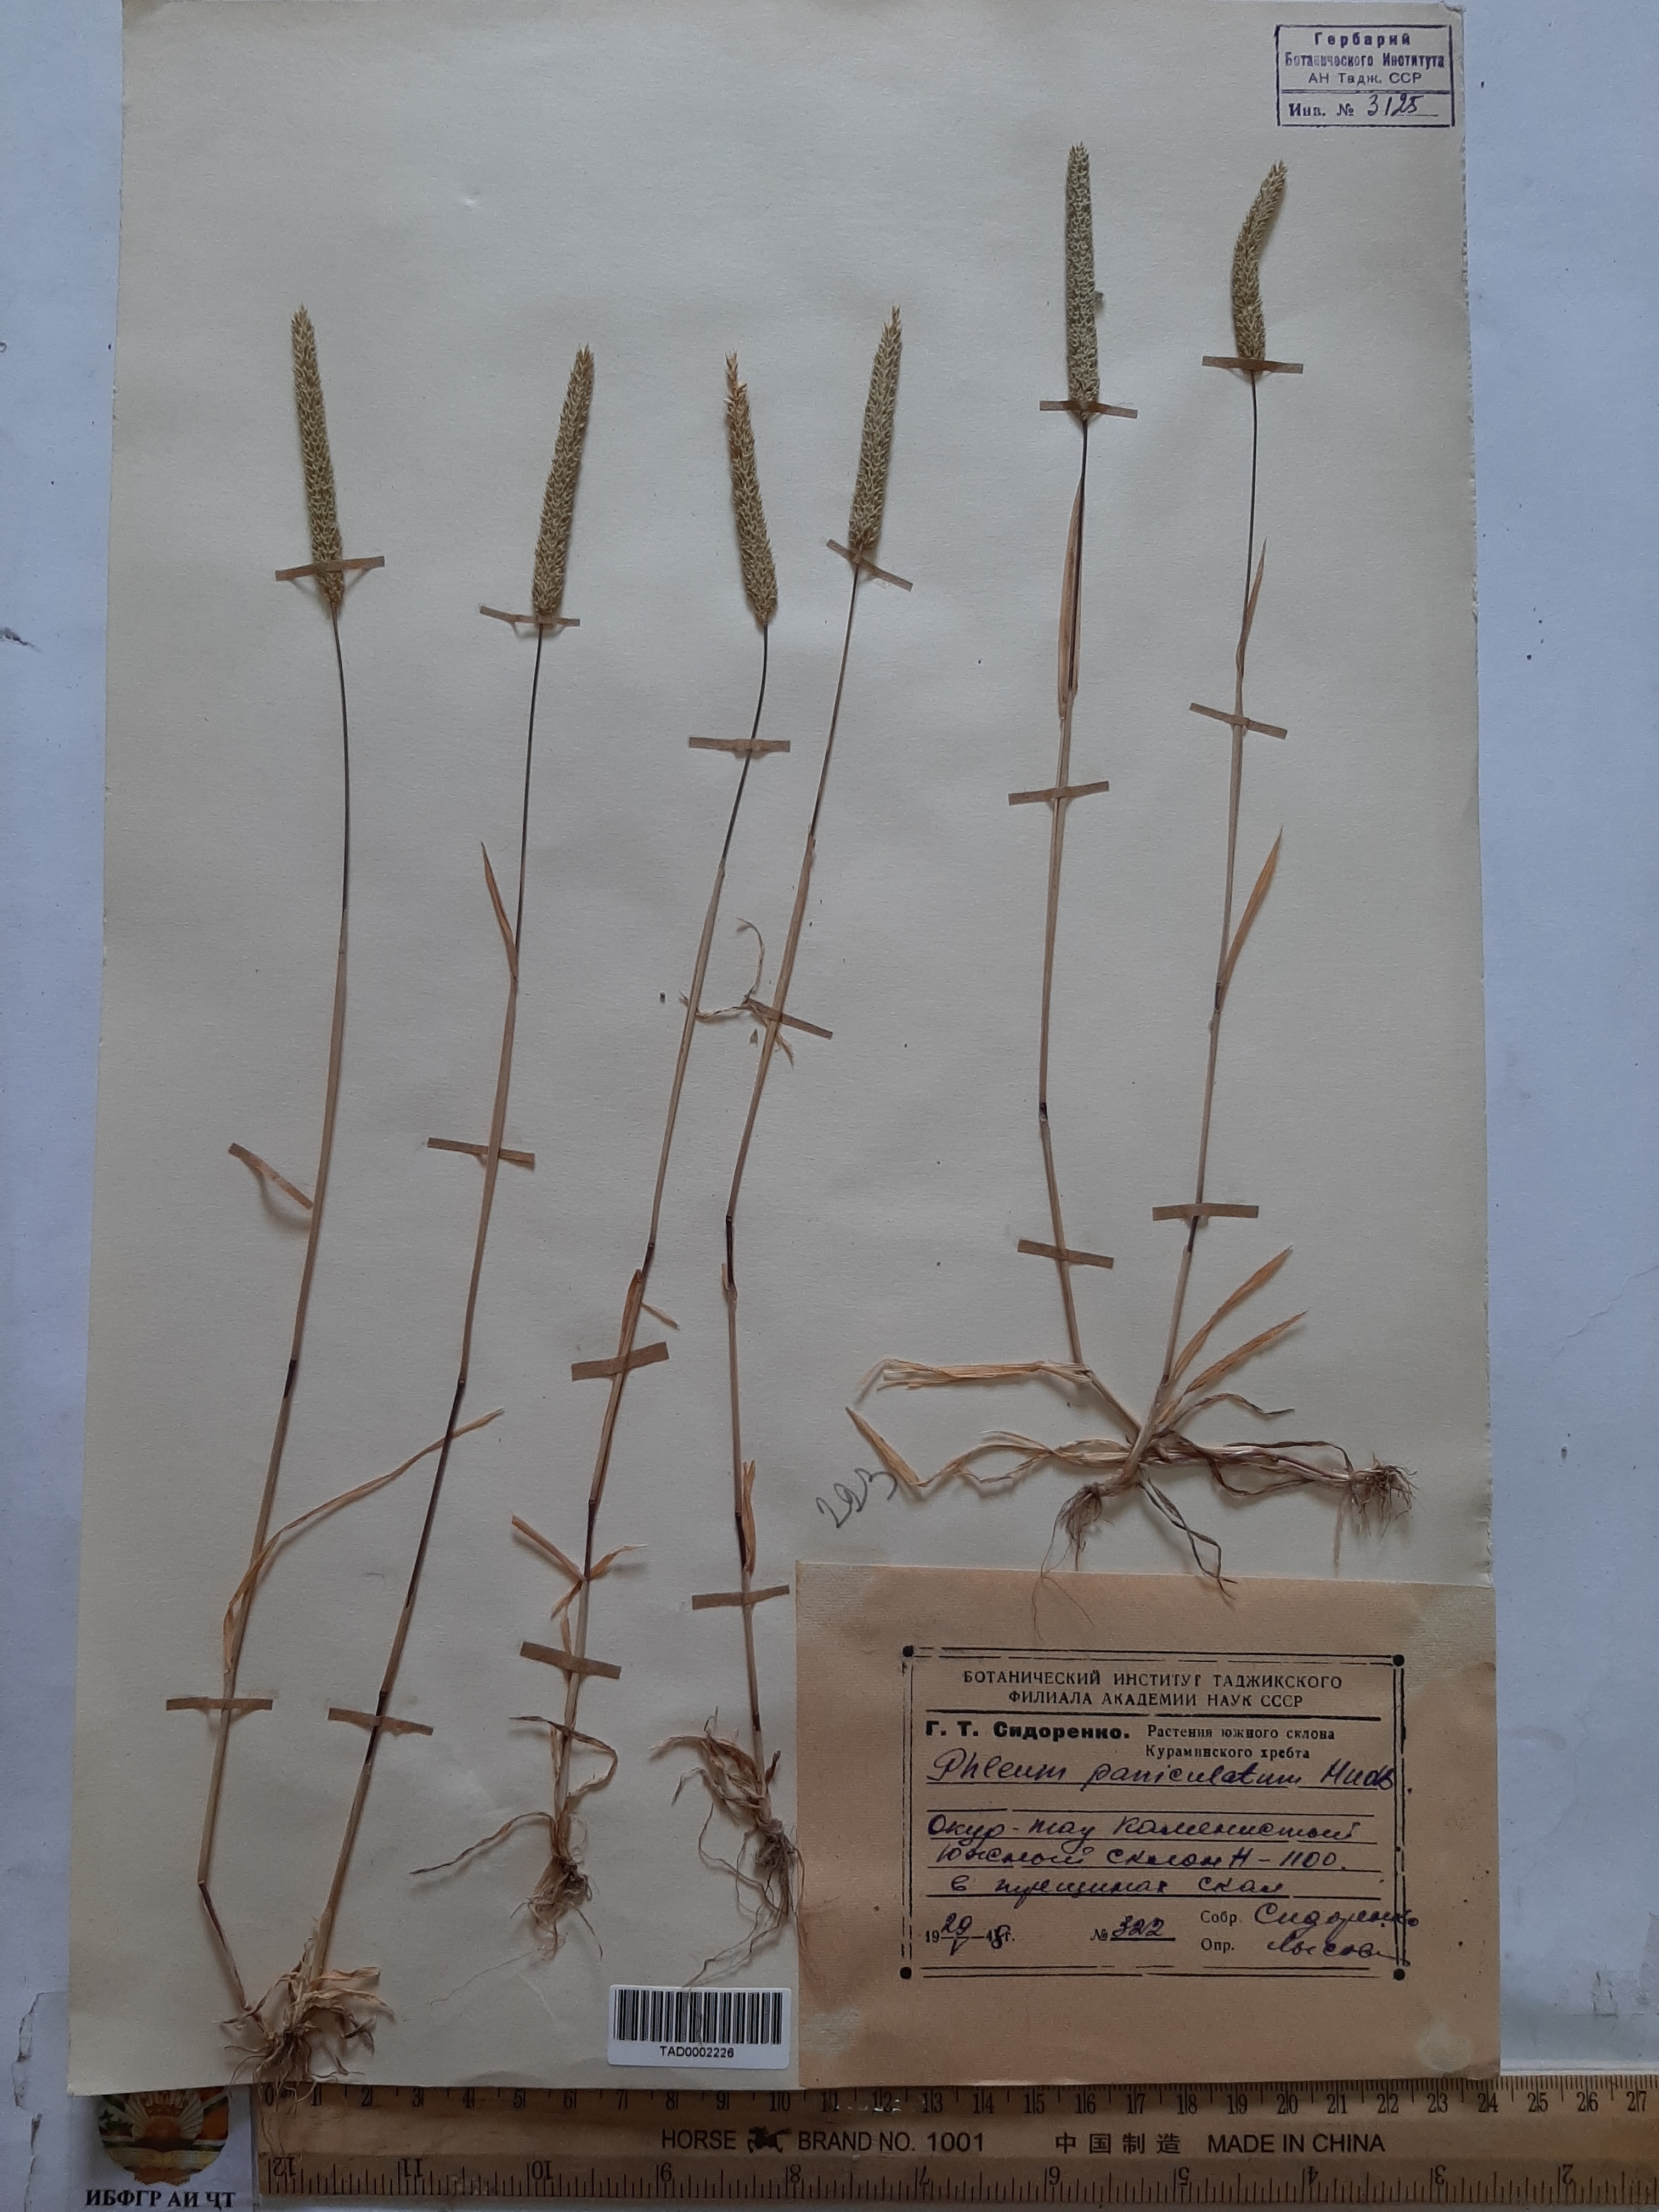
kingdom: Plantae
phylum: Tracheophyta
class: Liliopsida
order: Poales
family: Poaceae
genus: Phleum
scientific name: Phleum paniculatum
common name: British timothy
